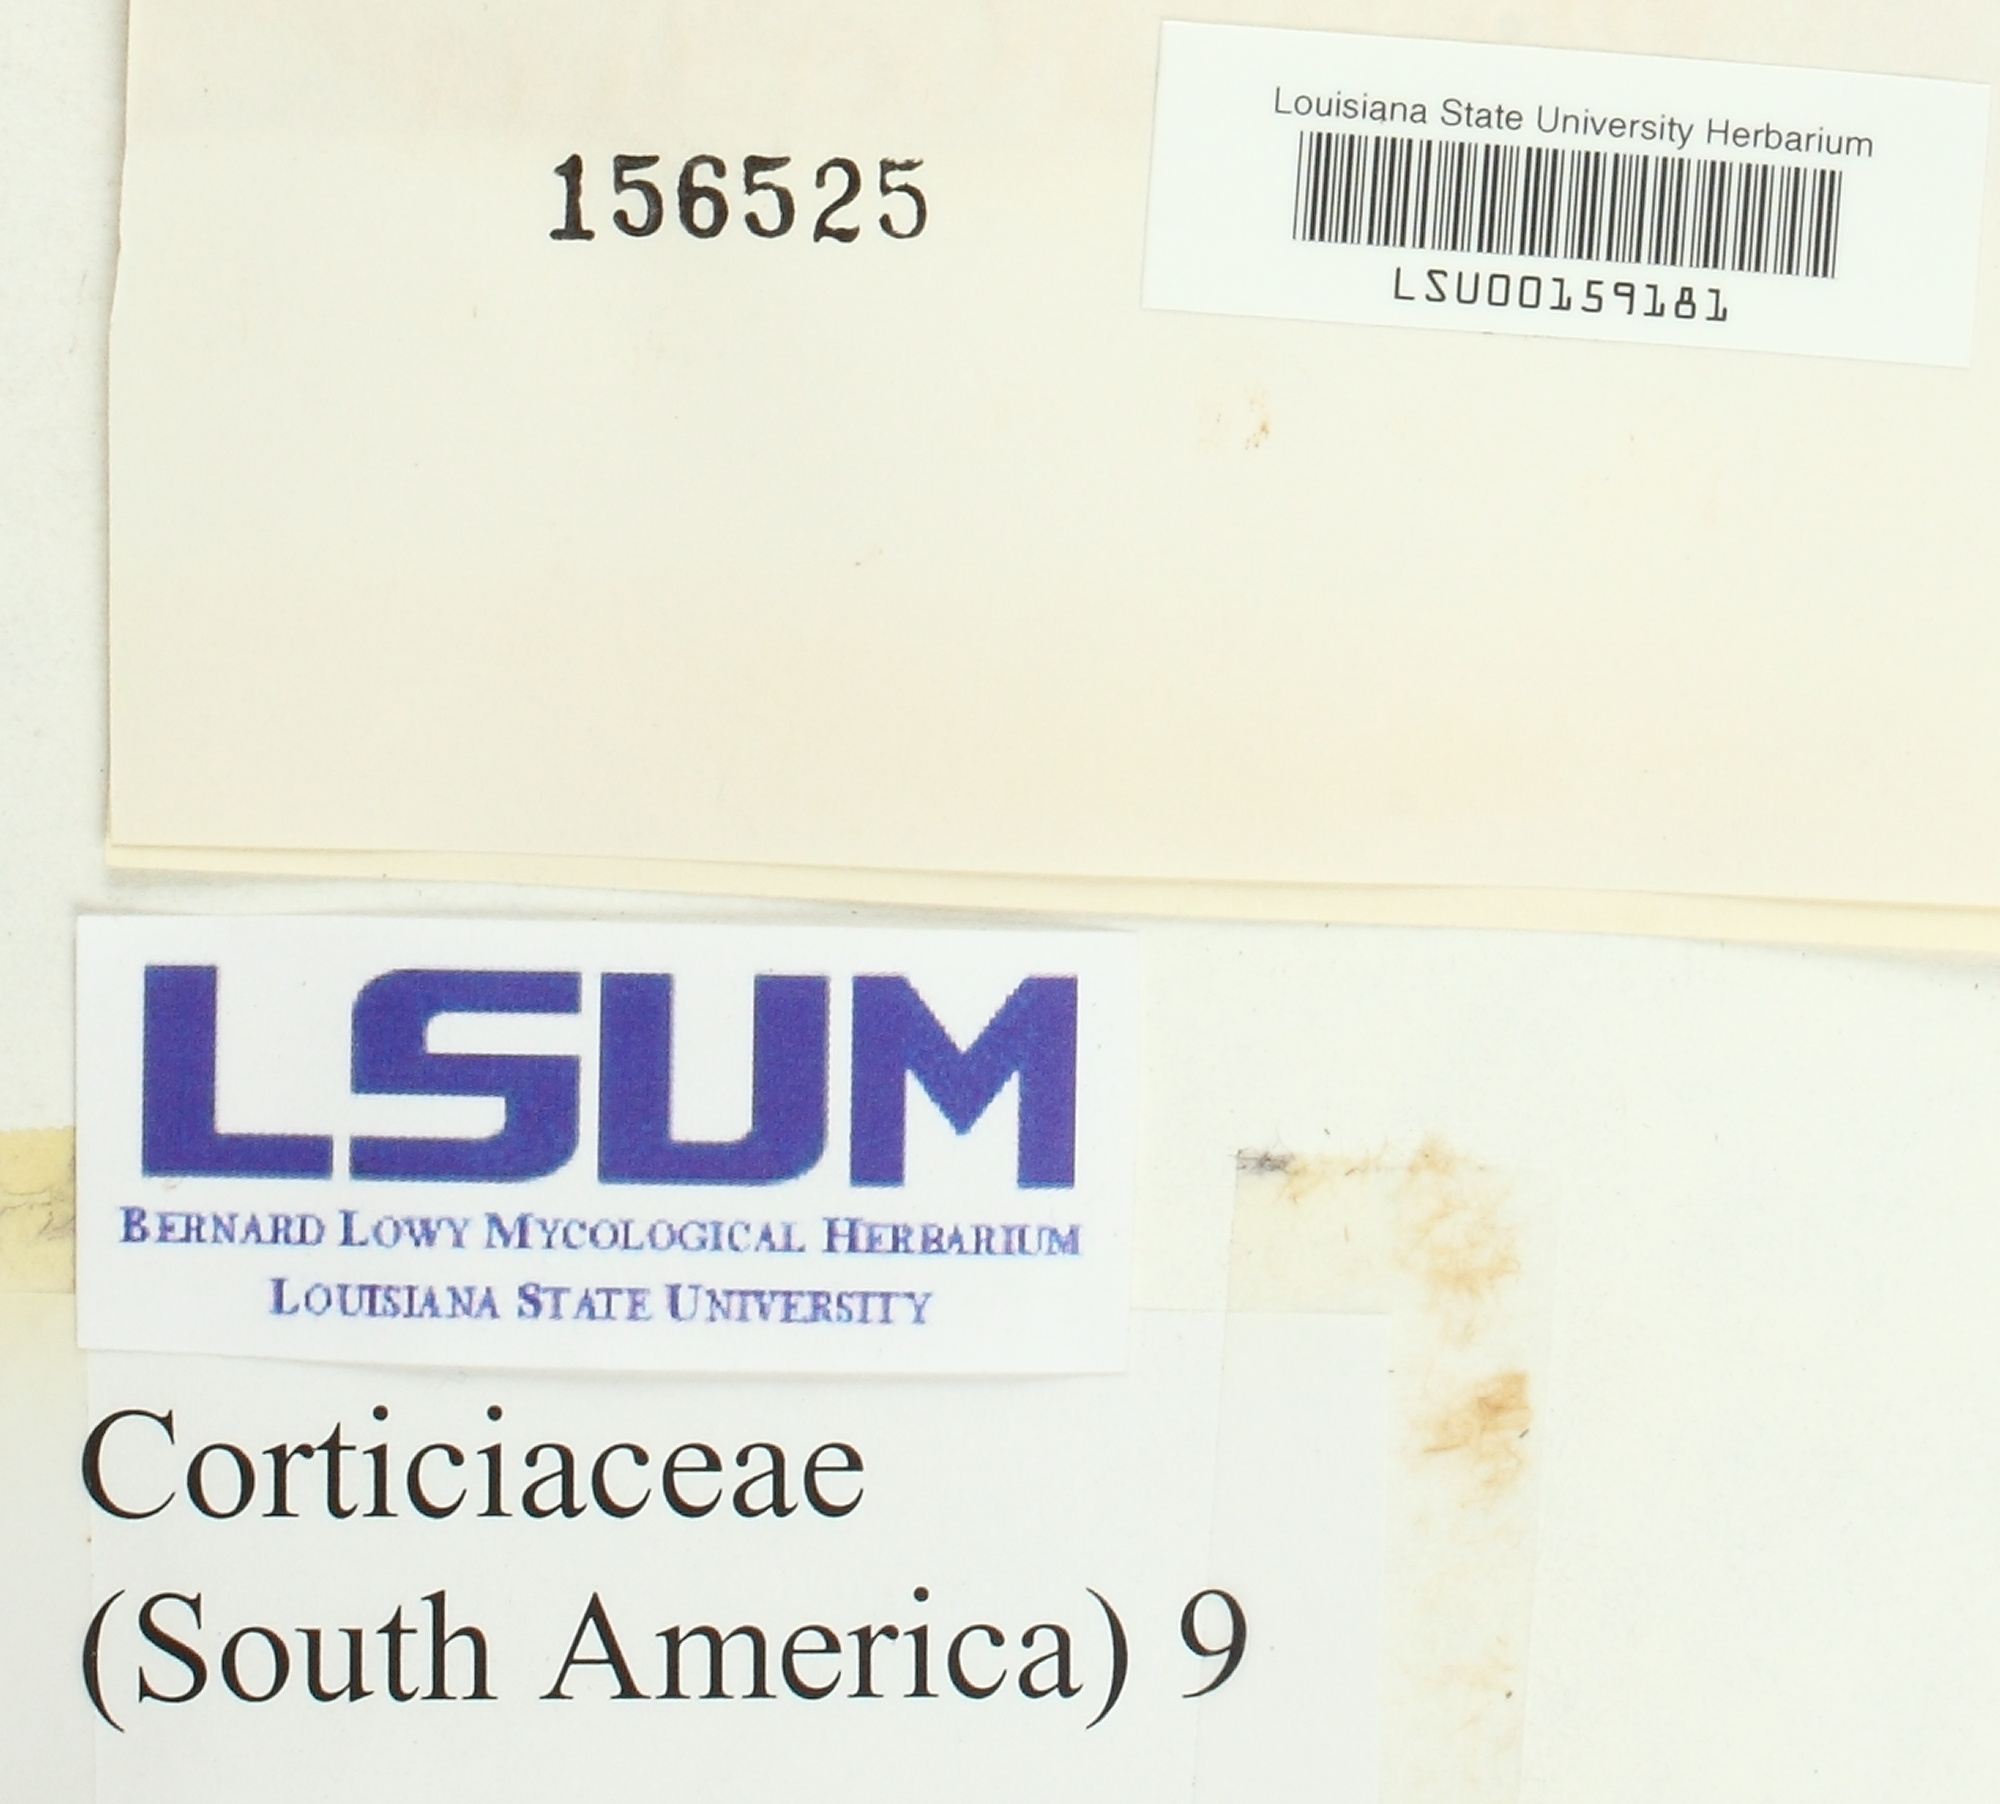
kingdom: Fungi
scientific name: Fungi
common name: Fungi
